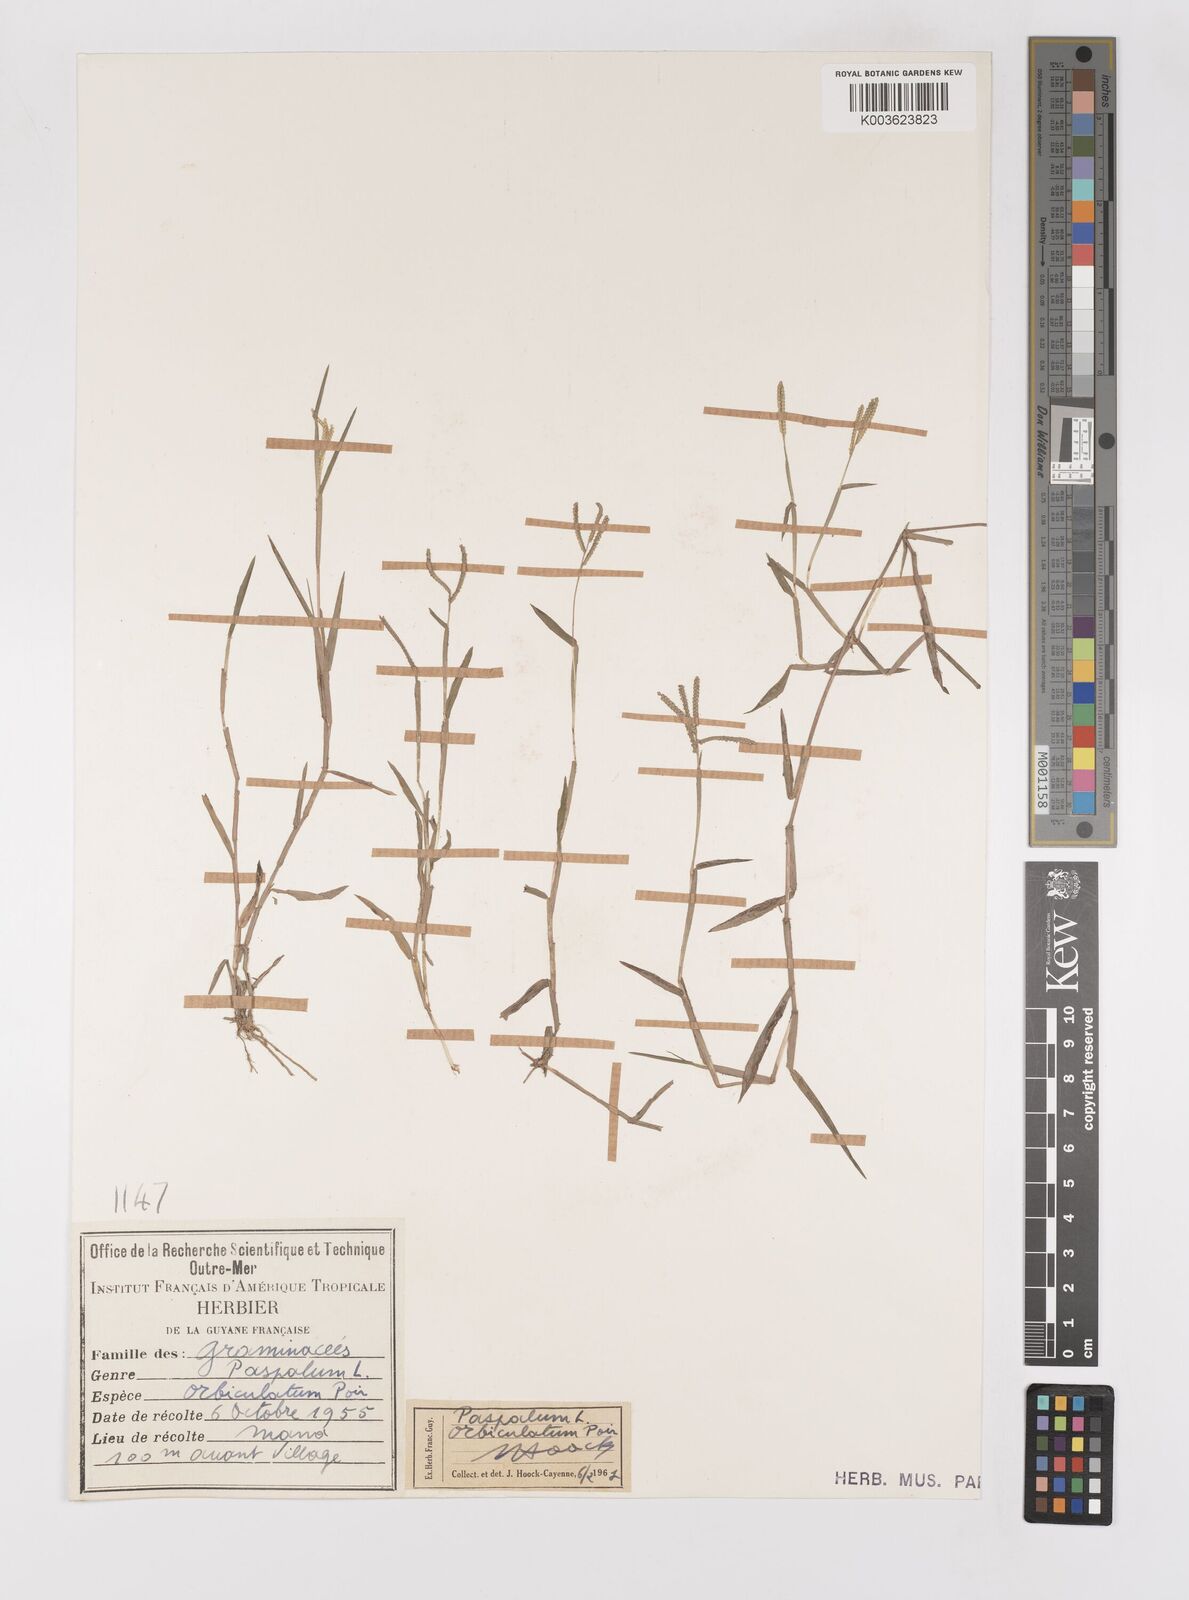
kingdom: Plantae
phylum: Tracheophyta
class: Liliopsida
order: Poales
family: Poaceae
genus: Paspalum
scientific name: Paspalum orbiculatum
